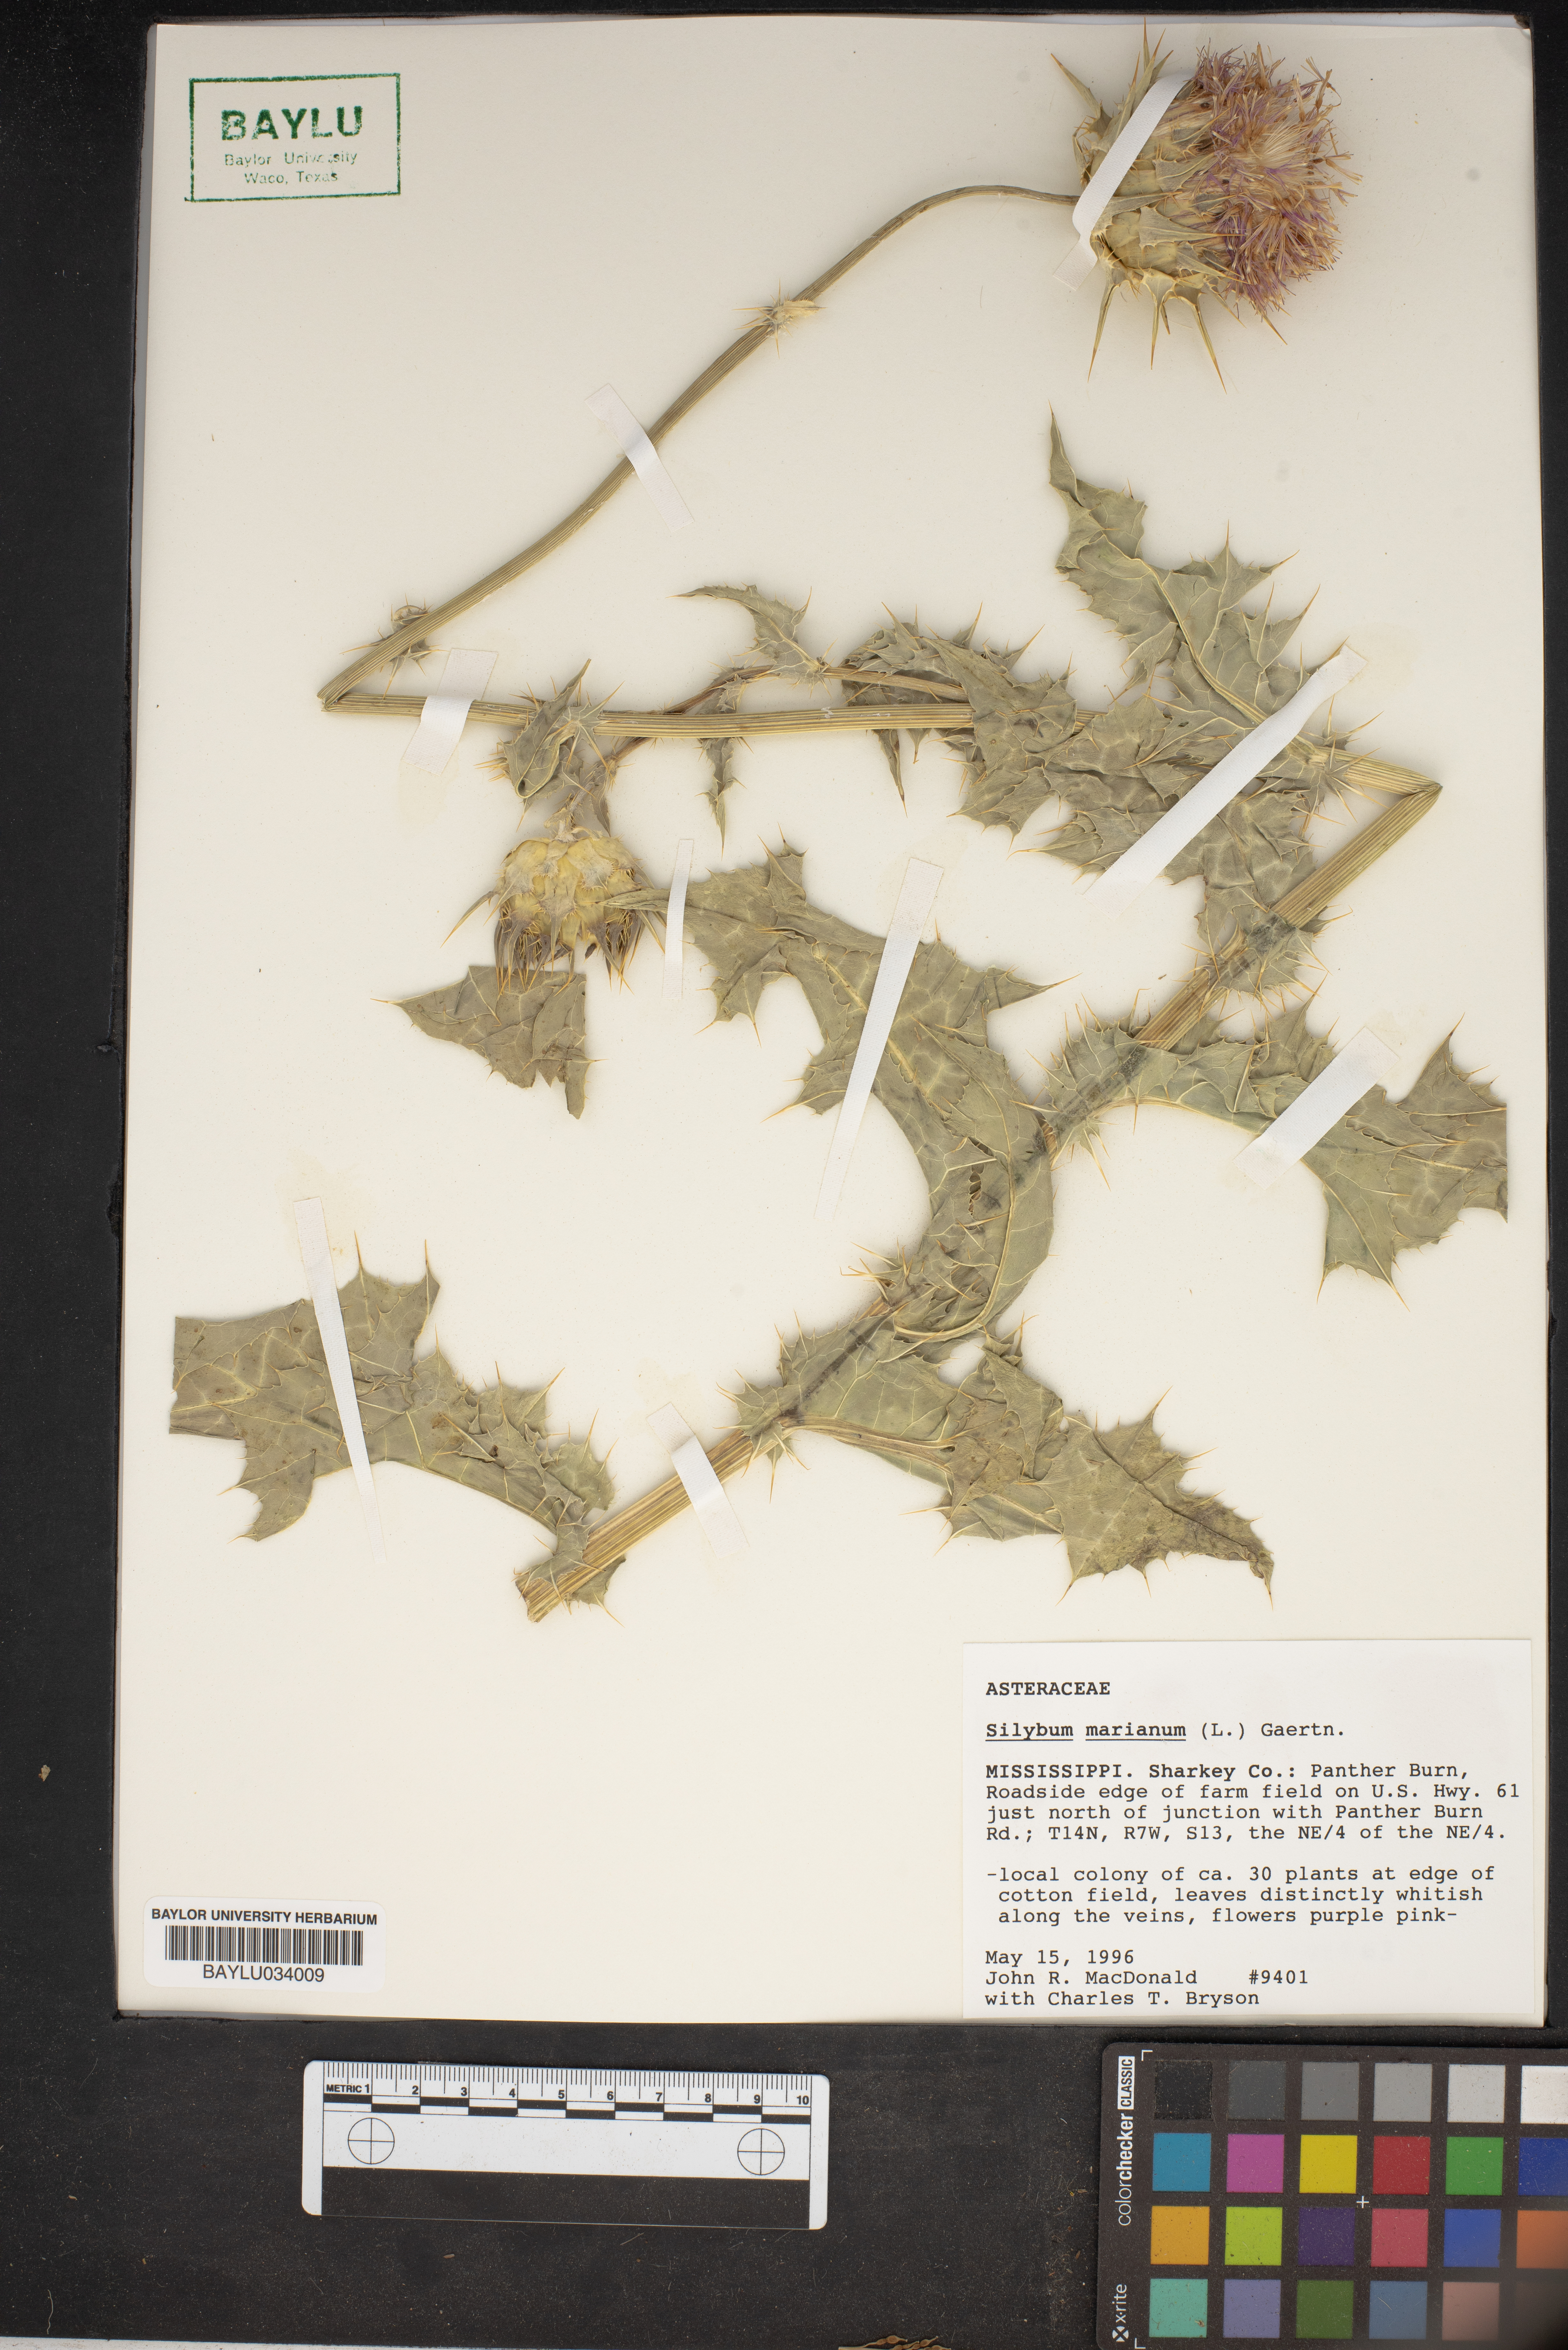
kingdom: Plantae
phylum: Tracheophyta
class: Magnoliopsida
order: Asterales
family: Asteraceae
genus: Silybum
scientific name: Silybum marianum
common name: Milk thistle
